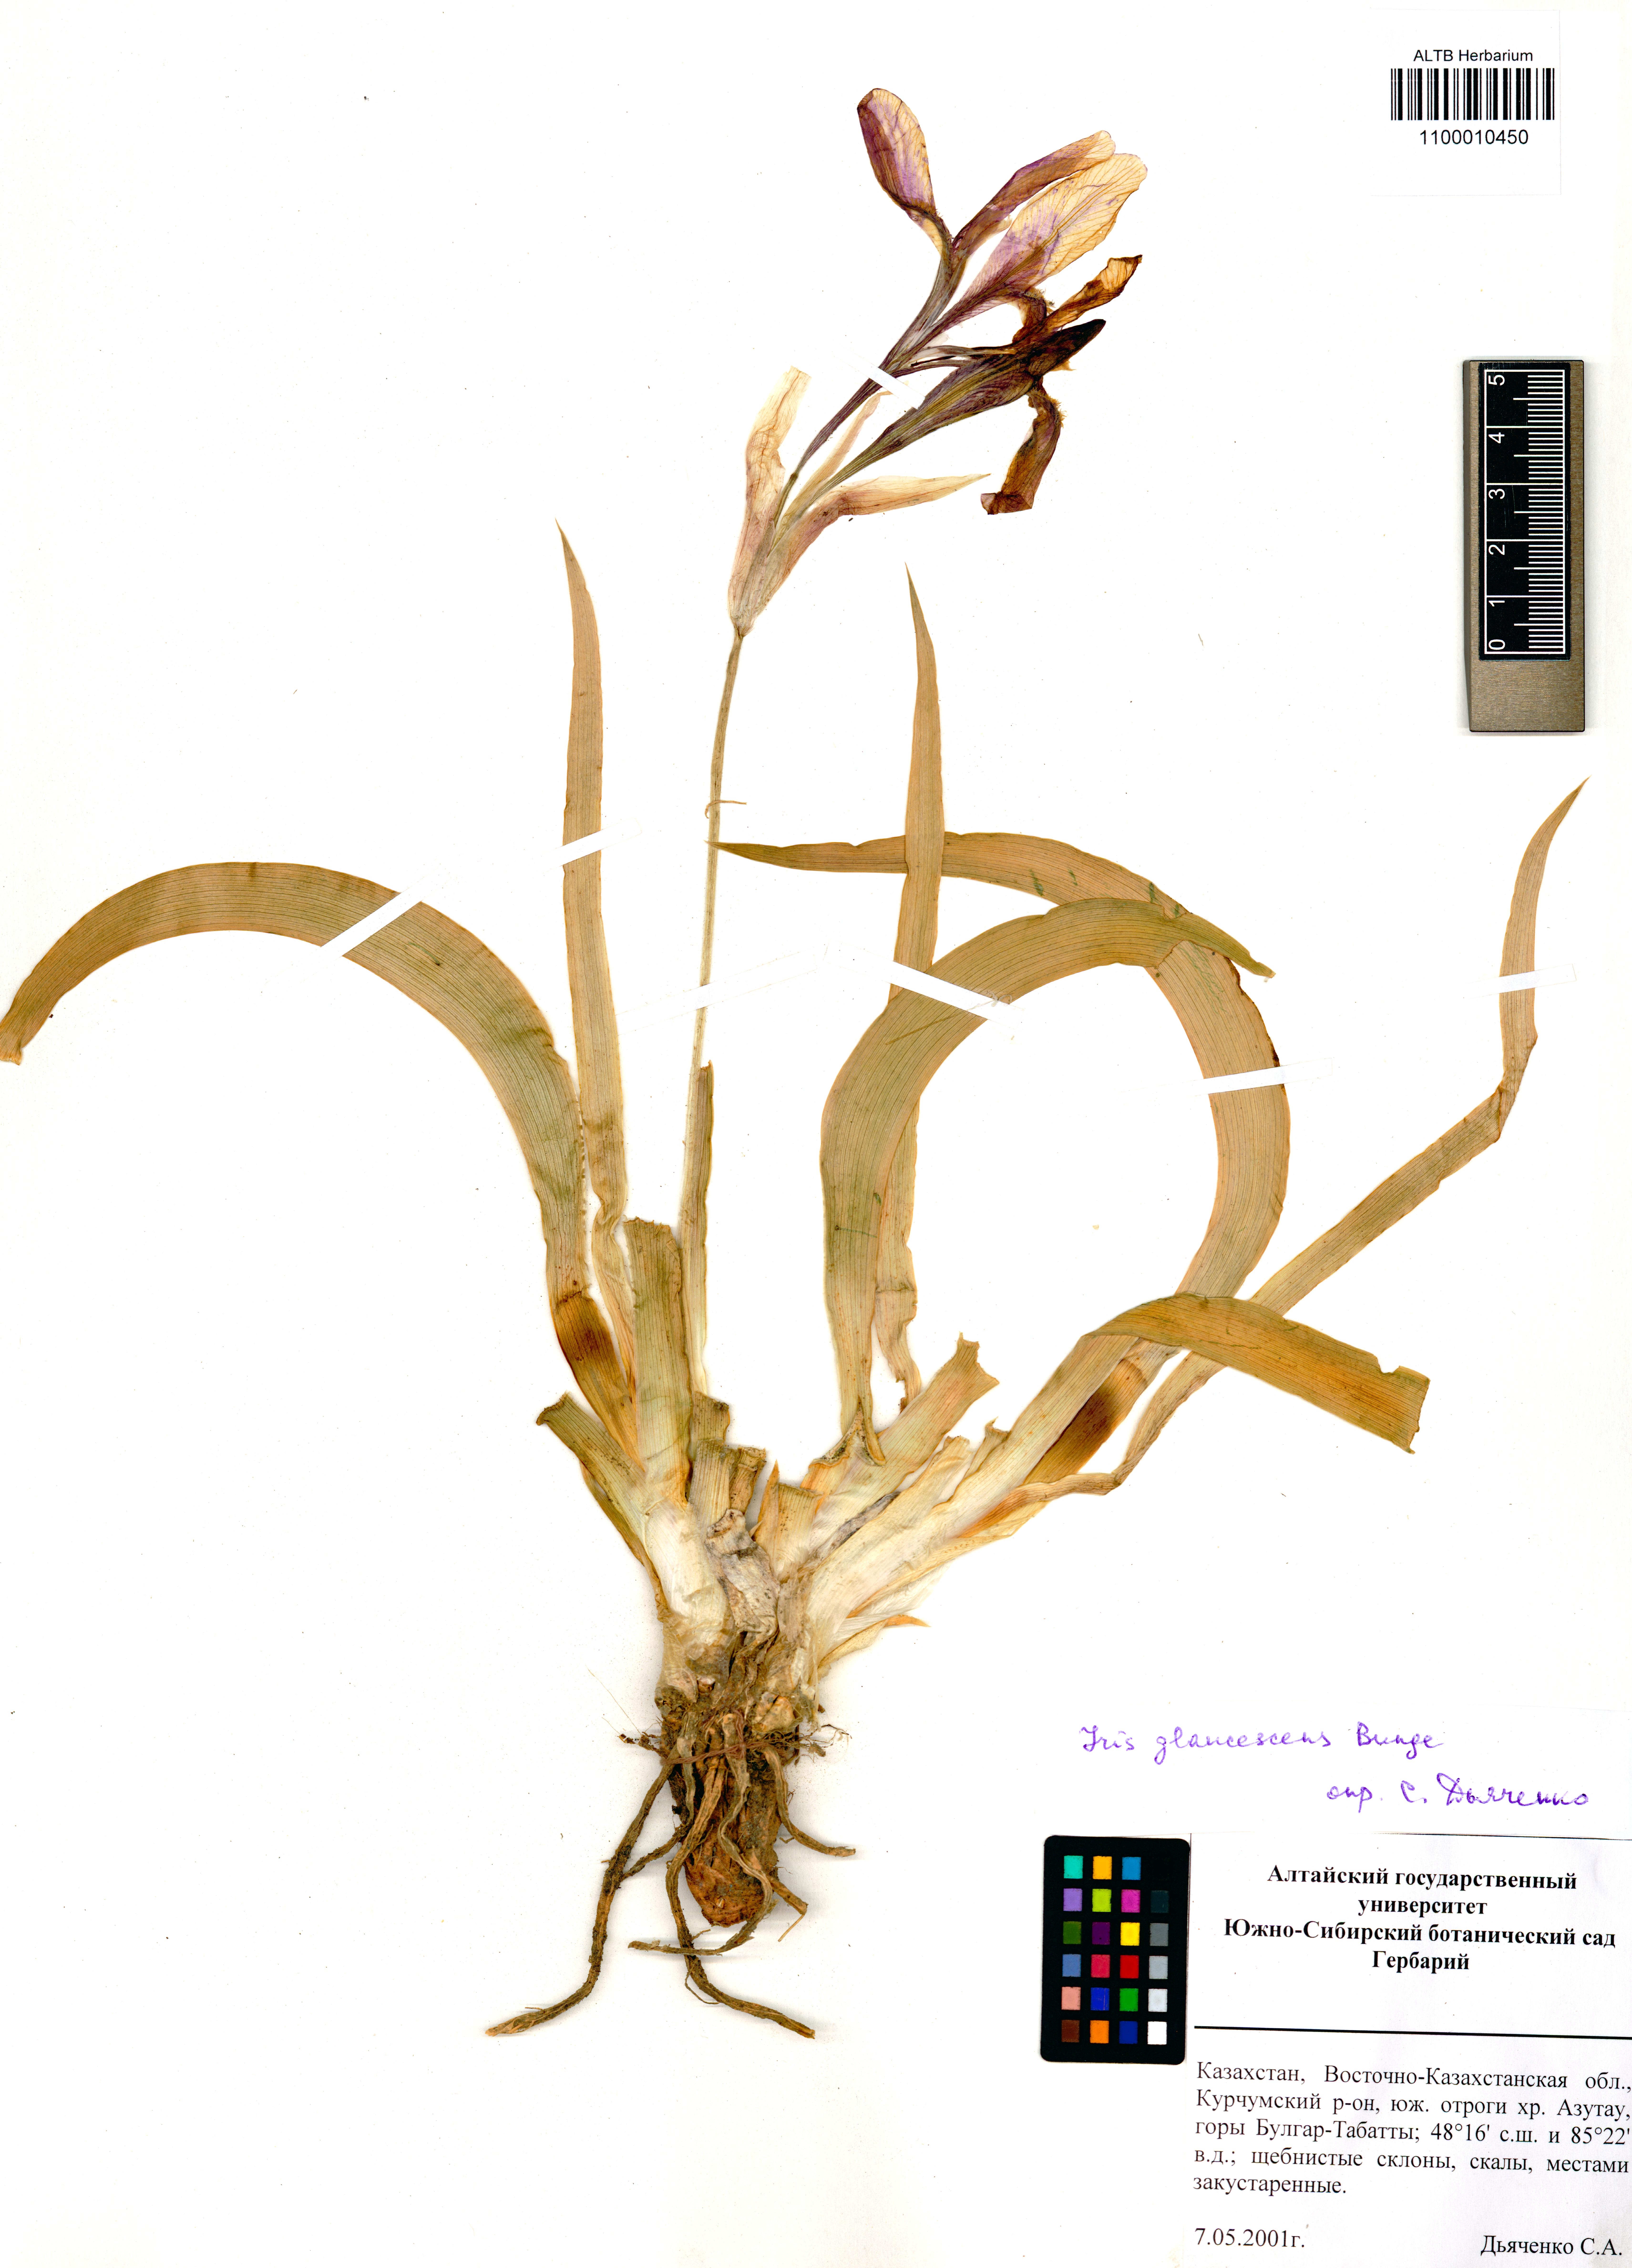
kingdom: Plantae
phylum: Tracheophyta
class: Liliopsida
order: Asparagales
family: Iridaceae
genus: Iris
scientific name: Iris glaucescens
